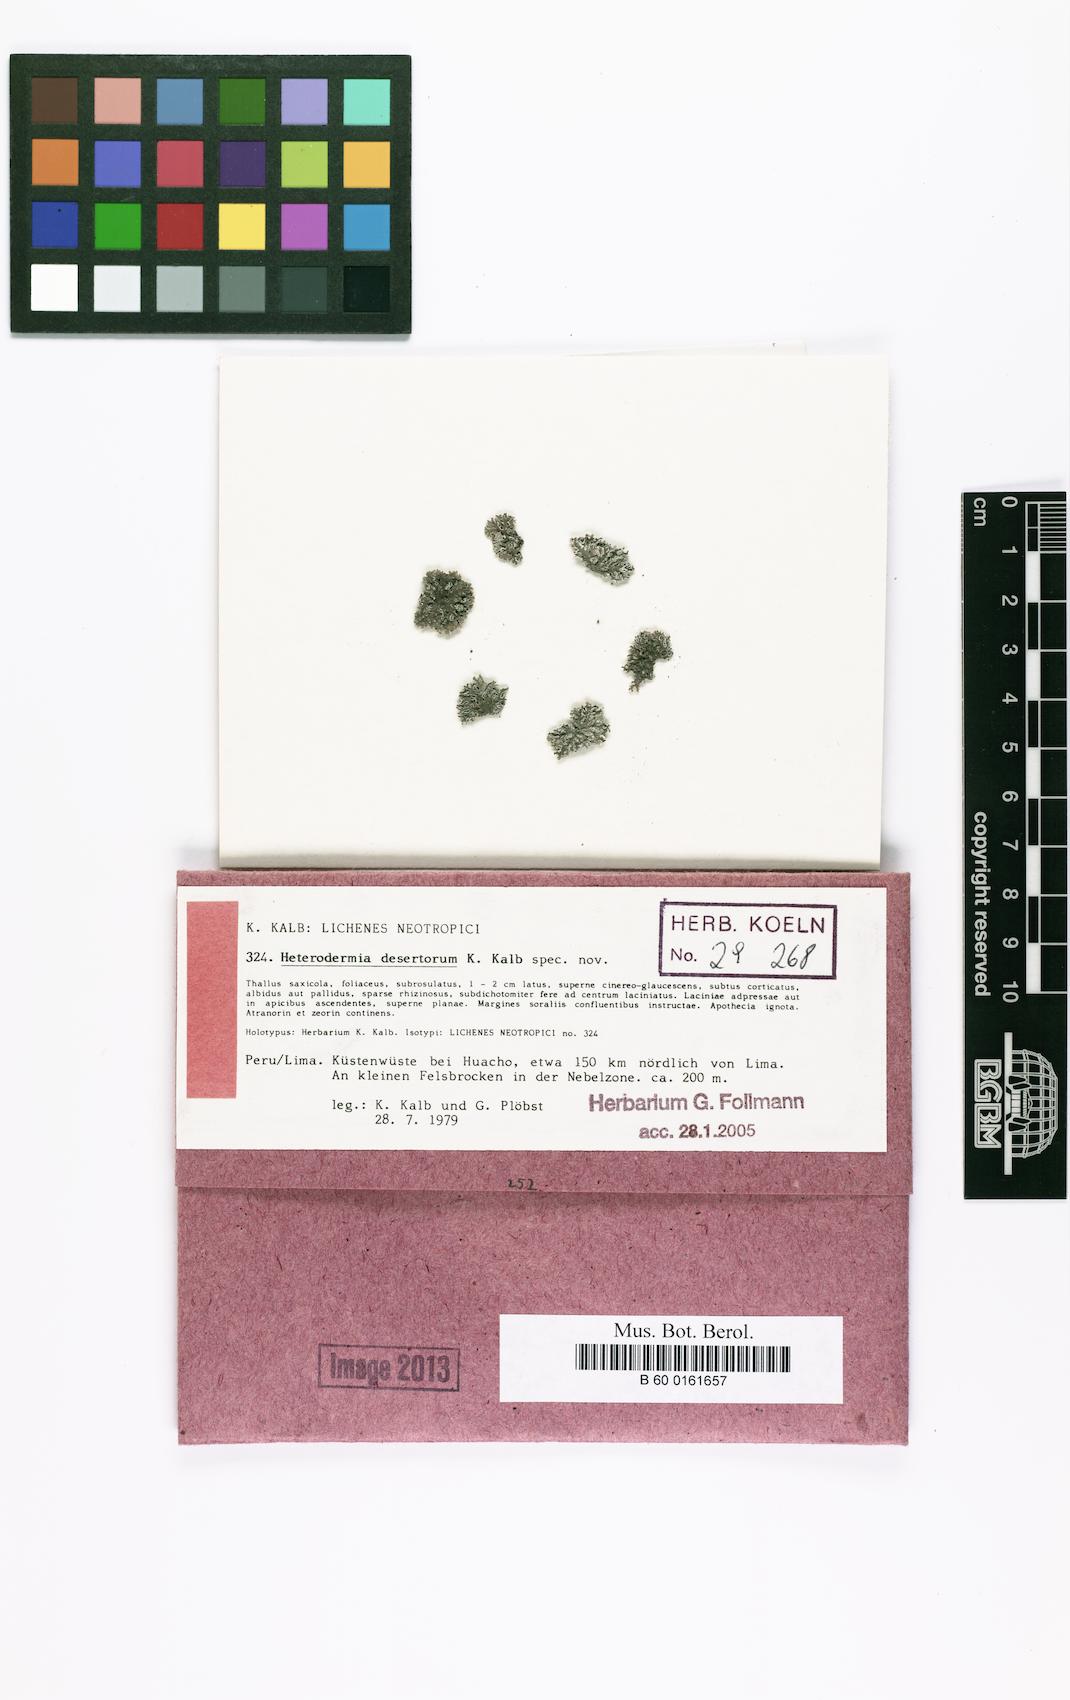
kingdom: Fungi
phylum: Ascomycota
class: Lecanoromycetes
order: Caliciales
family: Physciaceae
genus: Kashiwadia
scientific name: Kashiwadia nubila
